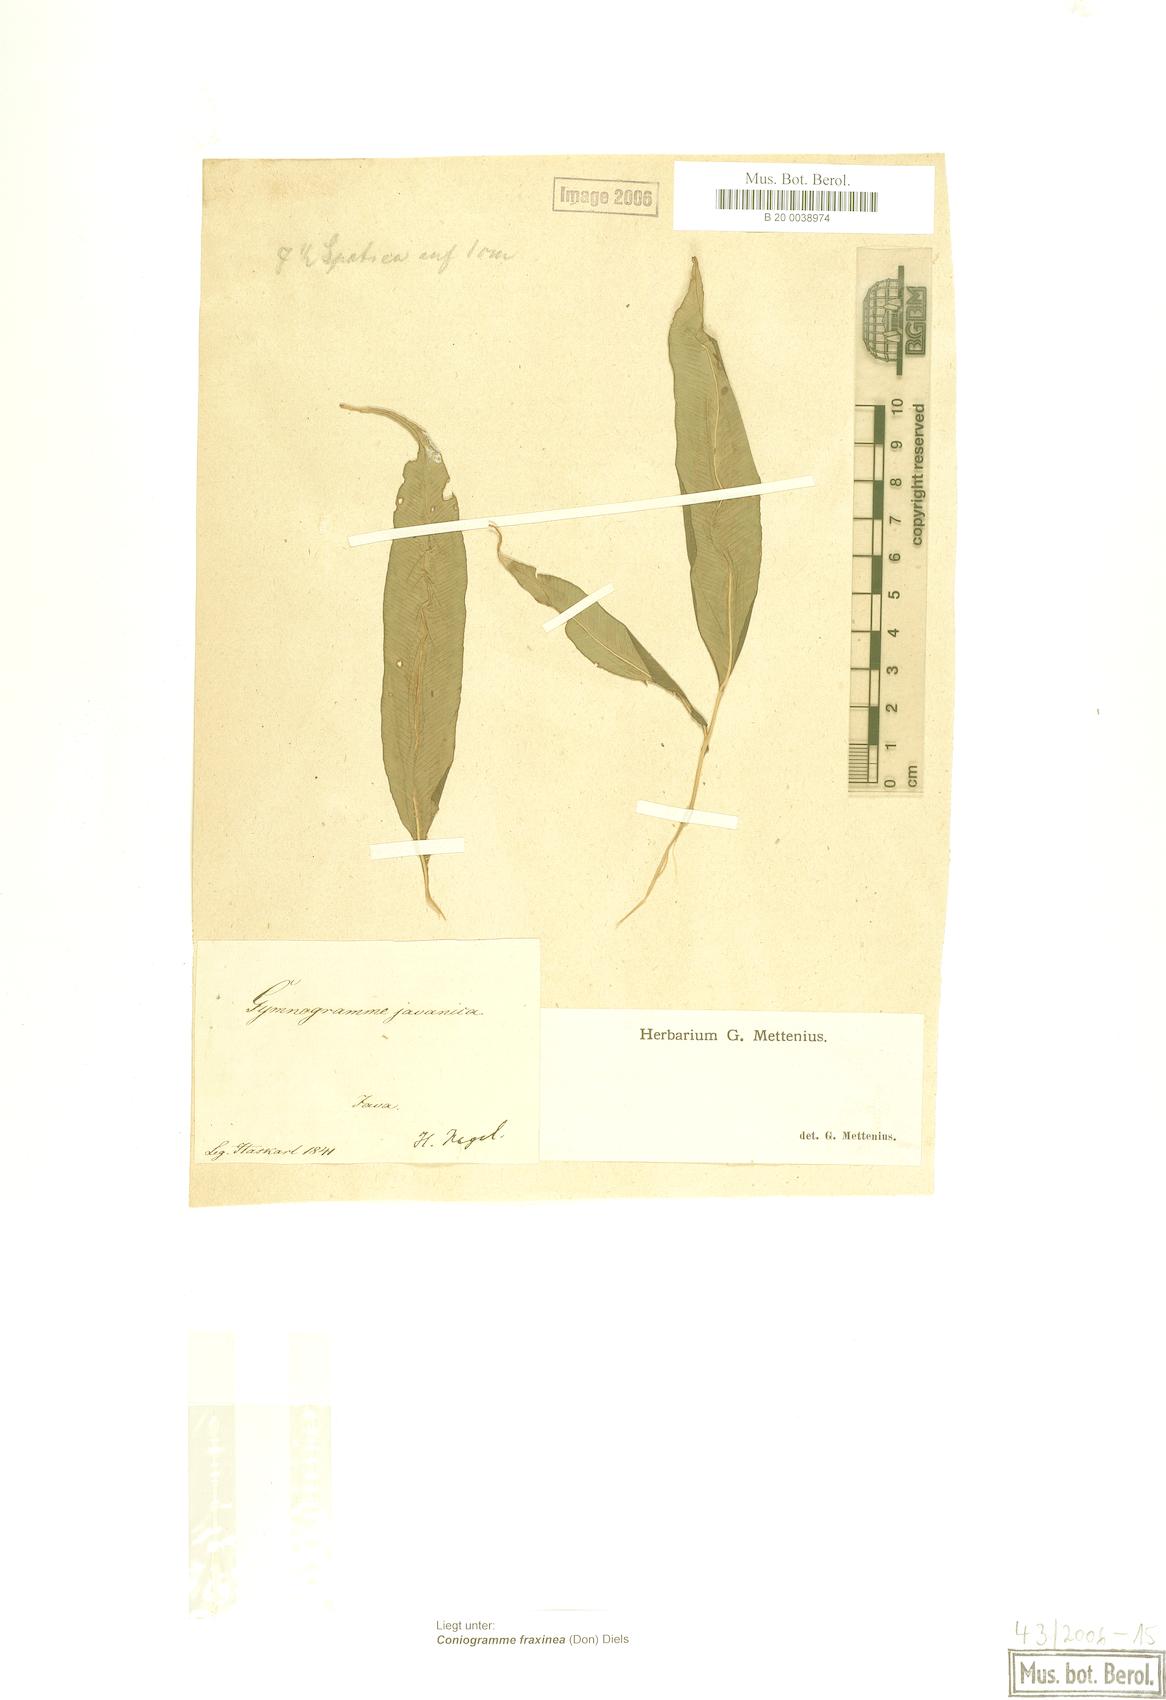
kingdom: Plantae
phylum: Tracheophyta
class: Polypodiopsida
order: Polypodiales
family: Pteridaceae
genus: Coniogramme
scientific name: Coniogramme fraxinea
